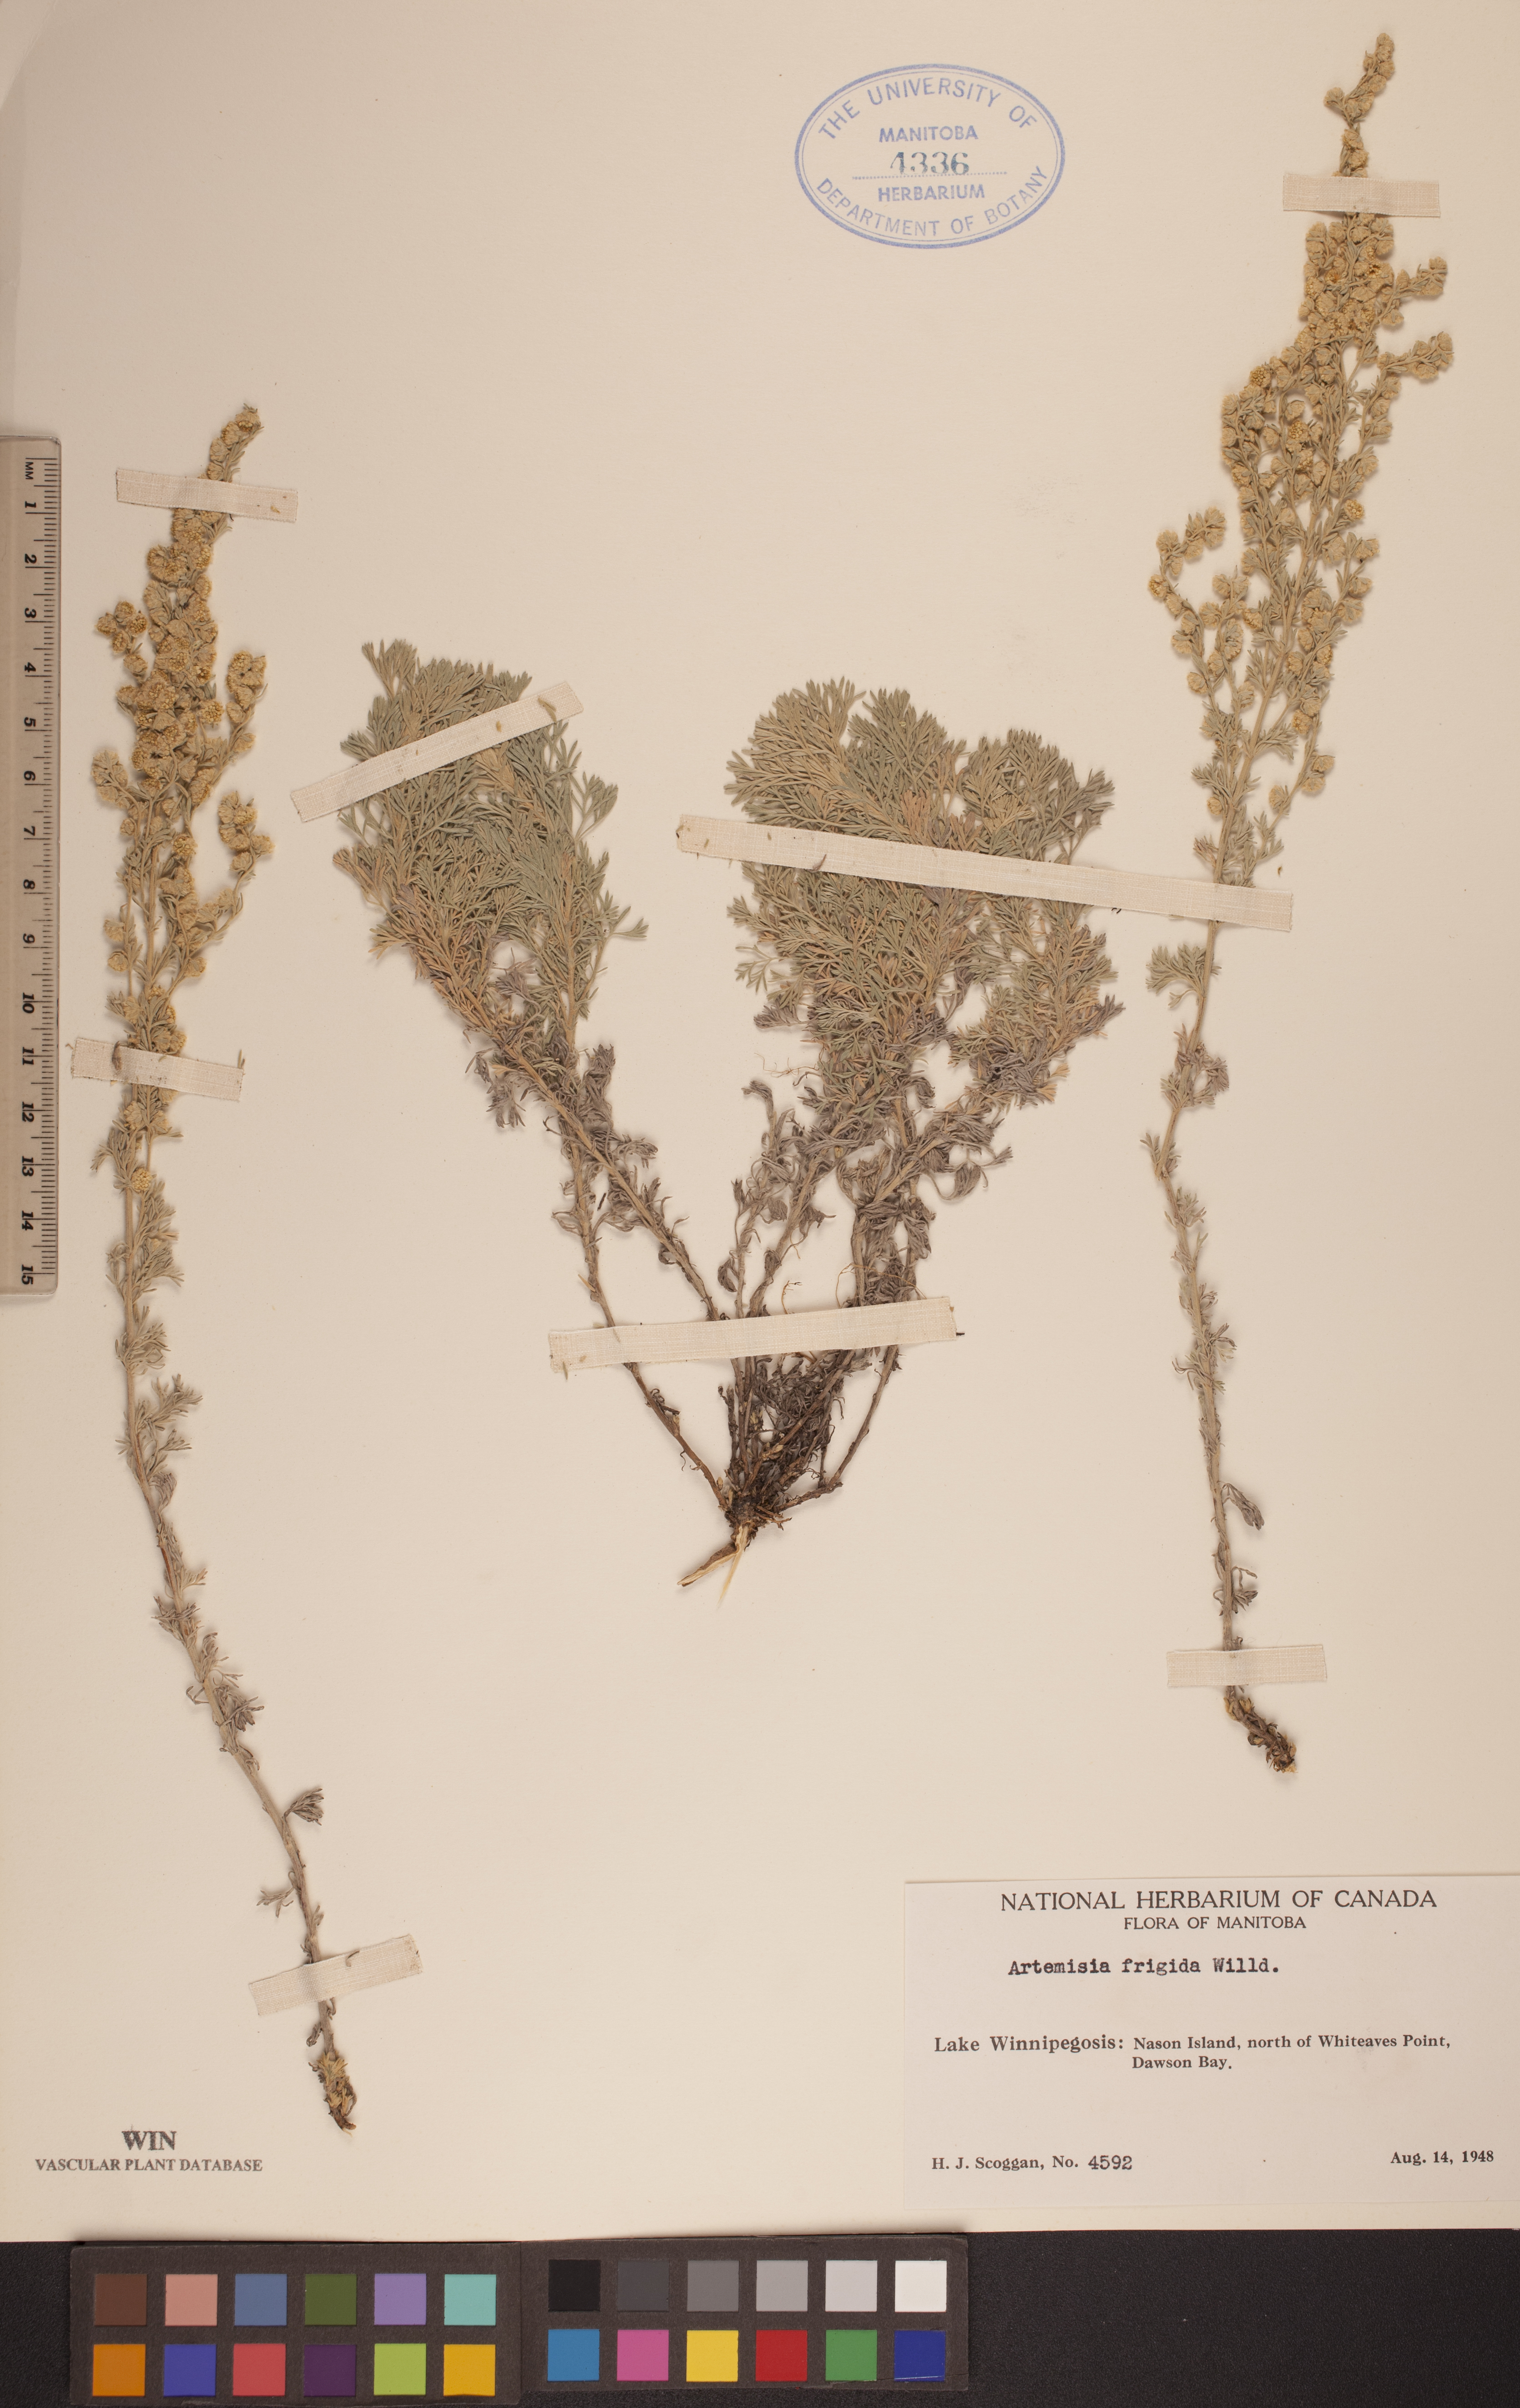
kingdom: Plantae
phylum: Tracheophyta
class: Magnoliopsida
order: Asterales
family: Asteraceae
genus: Artemisia
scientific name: Artemisia frigida
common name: Prairie sagewort
